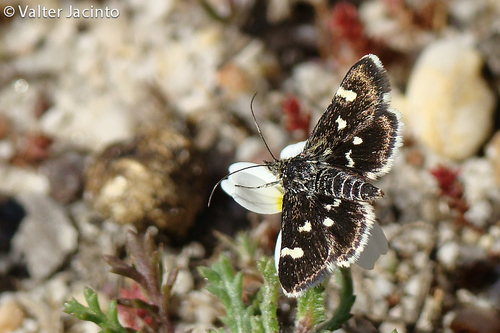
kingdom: Animalia
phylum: Arthropoda
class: Insecta
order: Lepidoptera
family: Crambidae
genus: Eurrhypis
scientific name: Eurrhypis guttulalis
